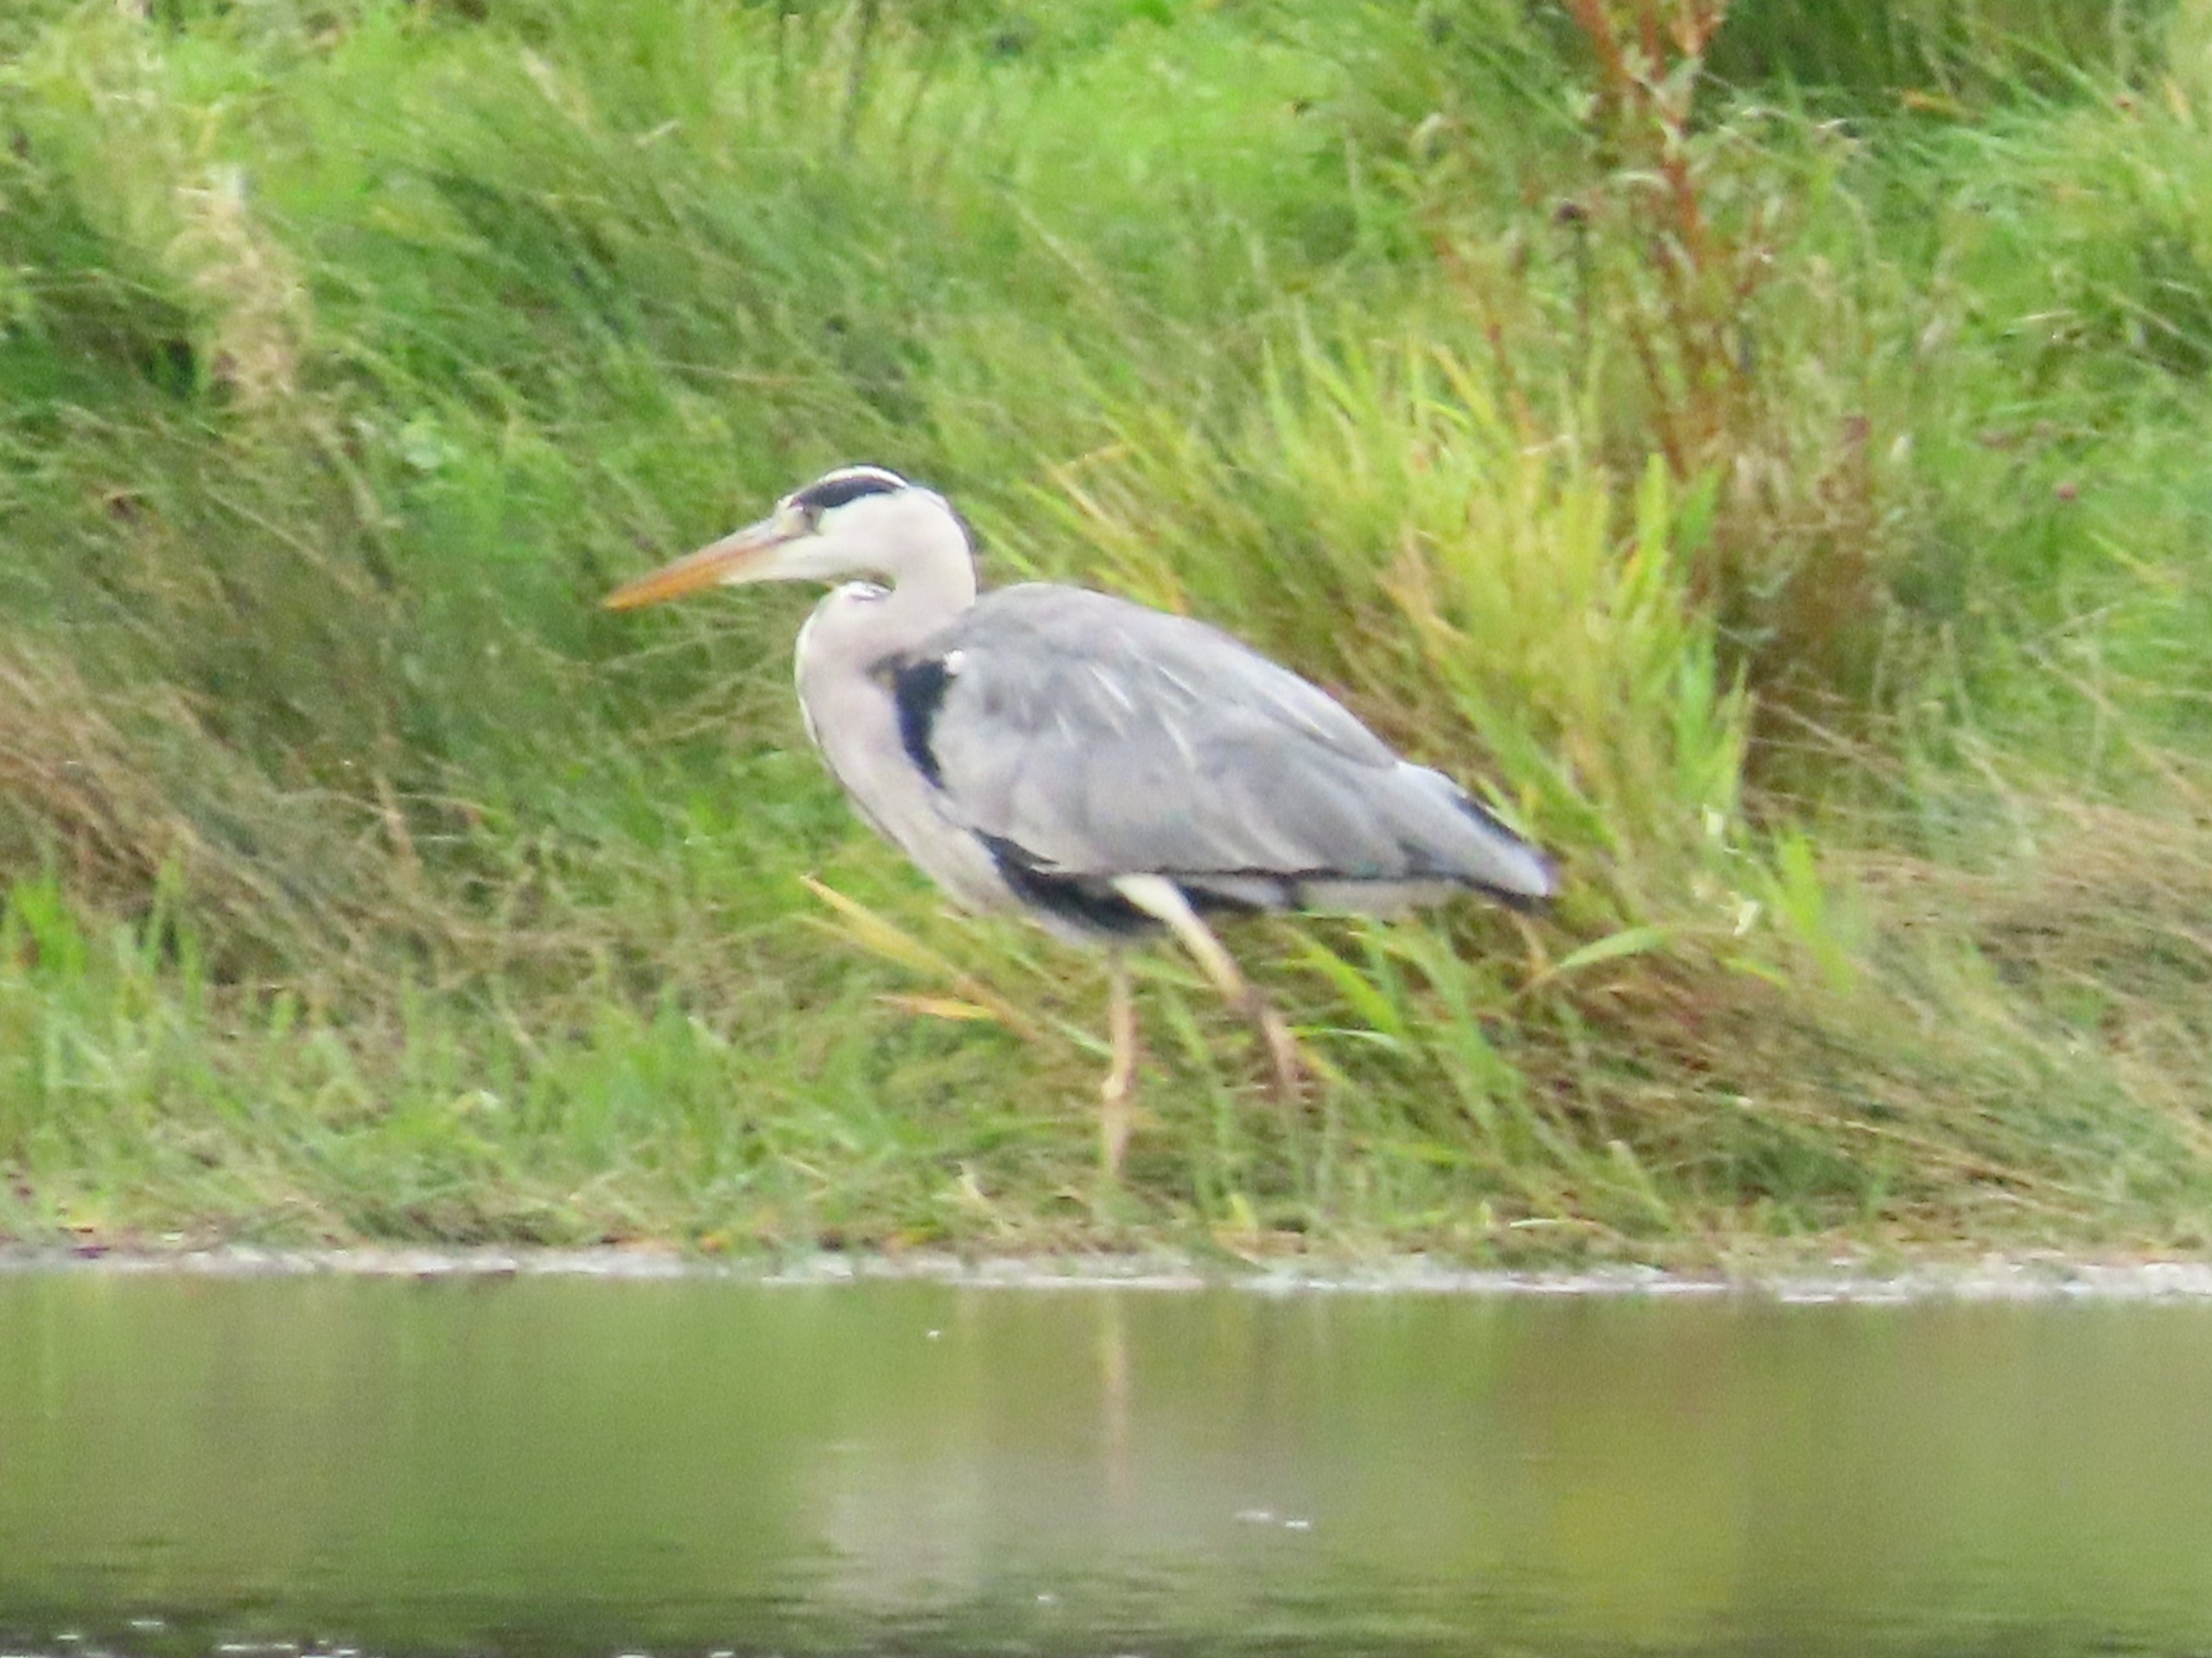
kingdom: Animalia
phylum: Chordata
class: Aves
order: Pelecaniformes
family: Ardeidae
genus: Ardea
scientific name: Ardea cinerea
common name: Fiskehejre
